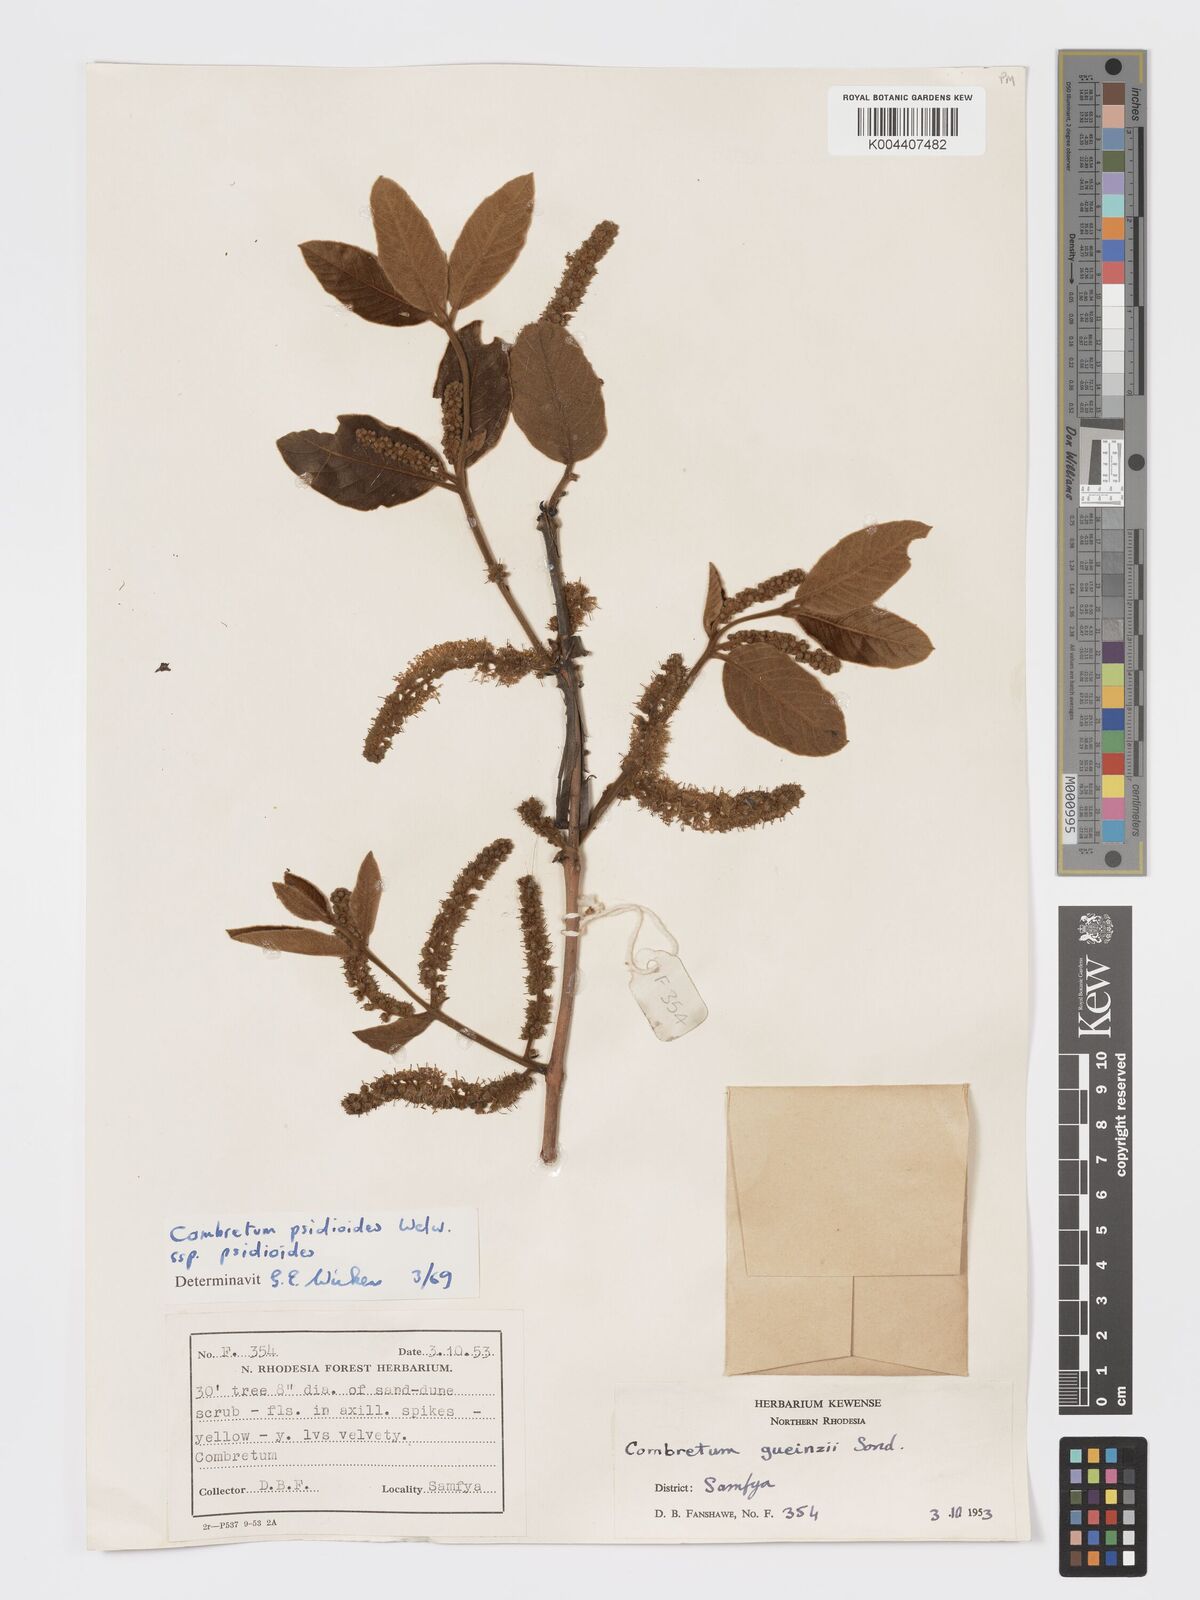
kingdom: Plantae
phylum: Tracheophyta
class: Magnoliopsida
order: Myrtales
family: Combretaceae
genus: Combretum
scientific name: Combretum psidioides
